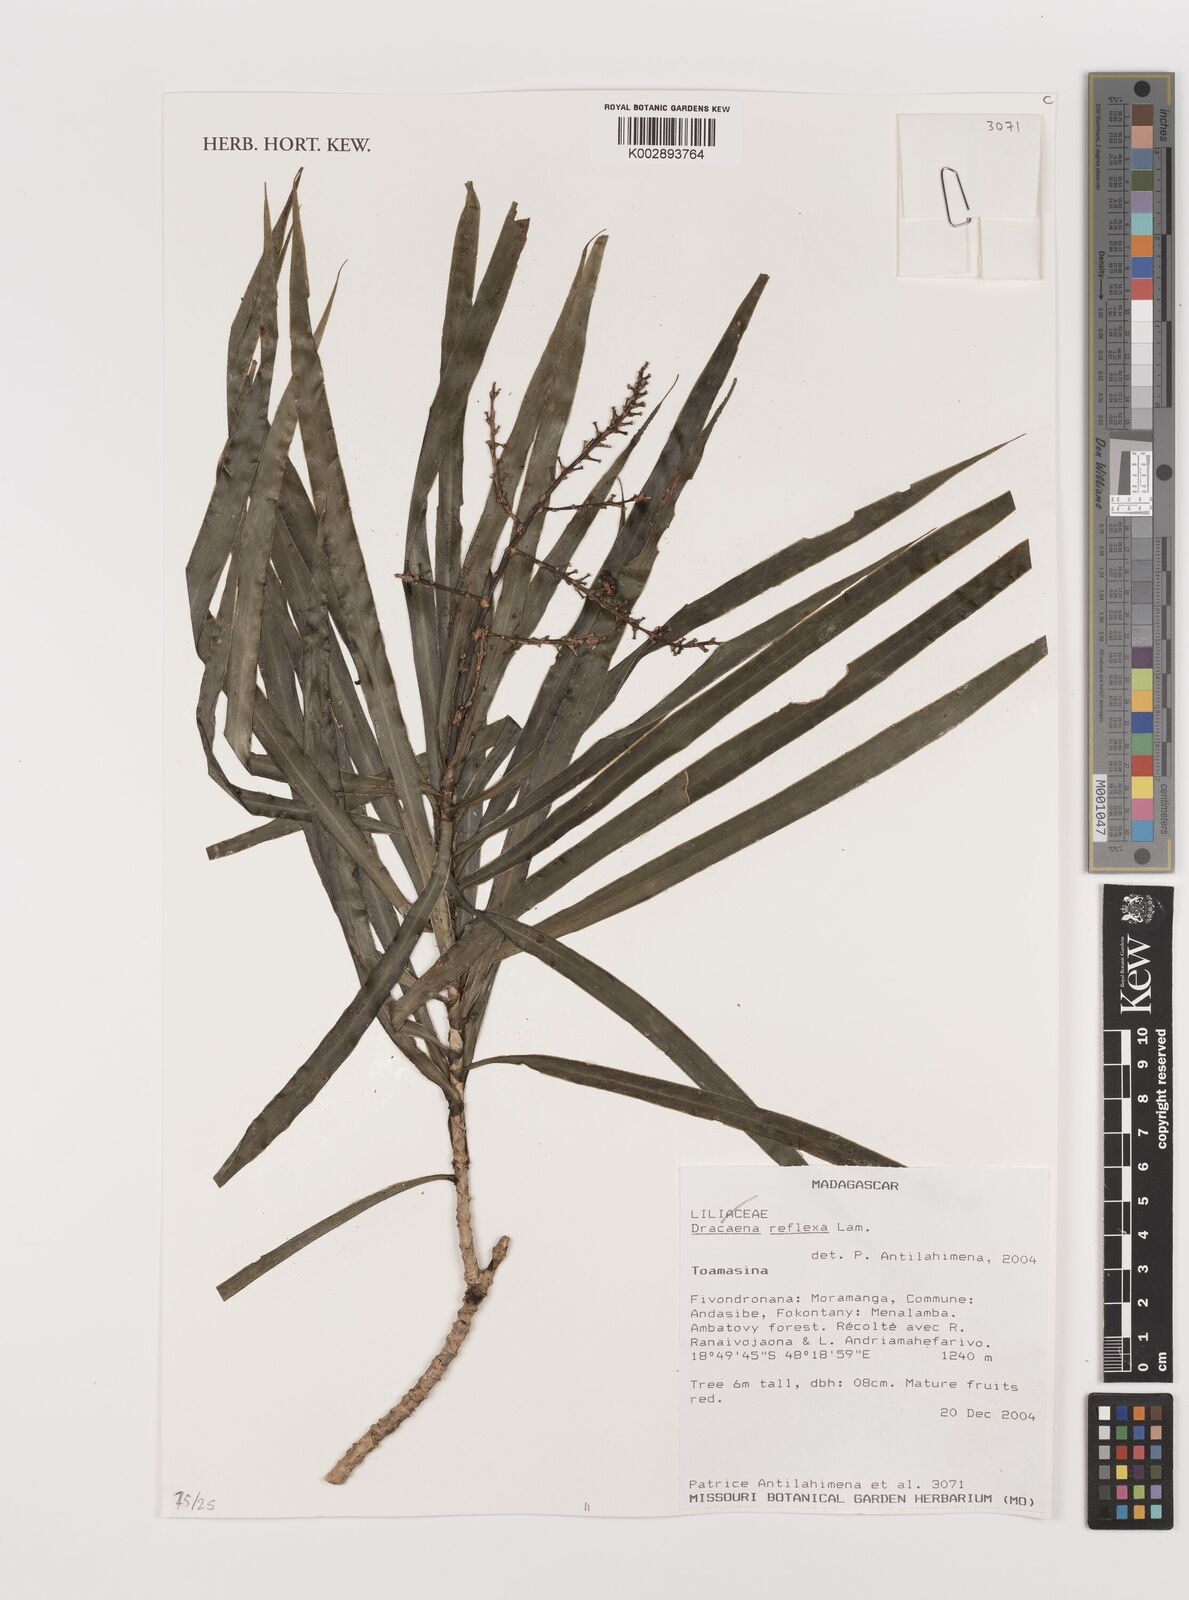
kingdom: Plantae
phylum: Tracheophyta
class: Liliopsida
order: Asparagales
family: Asparagaceae
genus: Dracaena
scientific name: Dracaena reflexa
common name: Song-of-india
